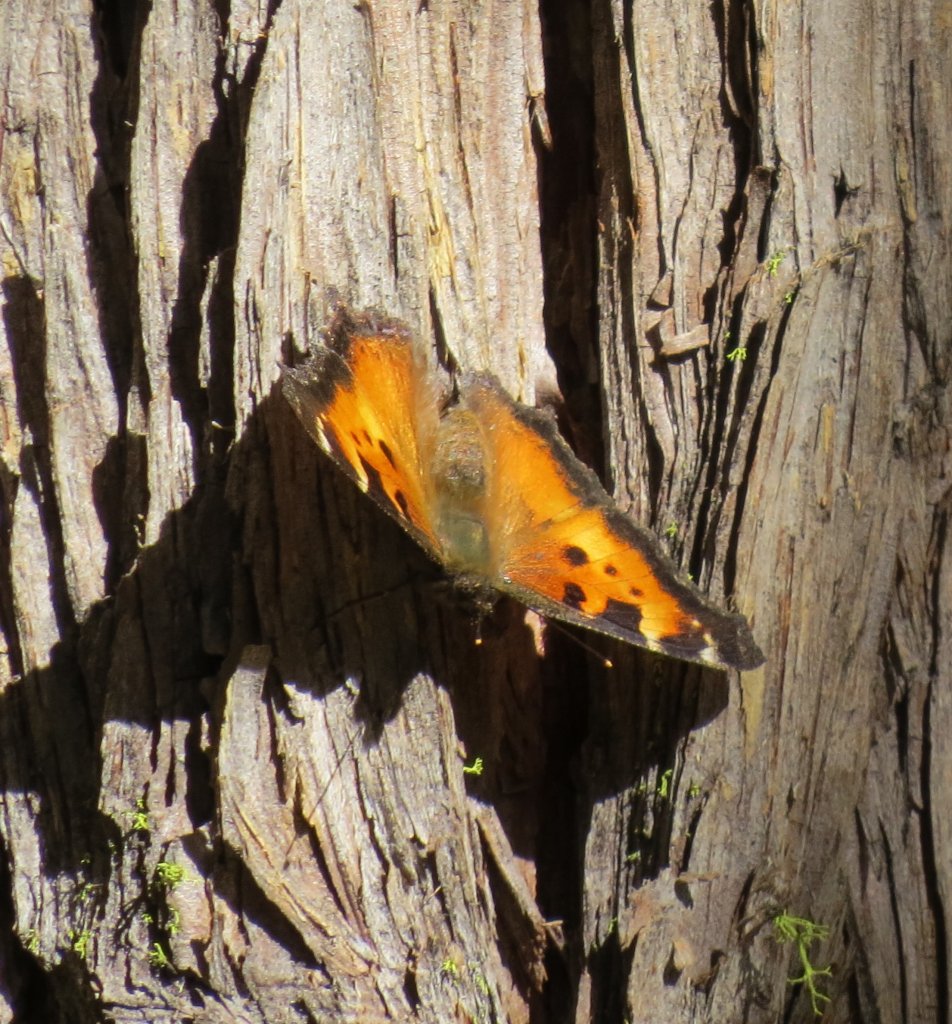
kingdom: Animalia
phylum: Arthropoda
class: Insecta
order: Lepidoptera
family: Nymphalidae
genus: Nymphalis
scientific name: Nymphalis californica
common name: California Tortoiseshell
